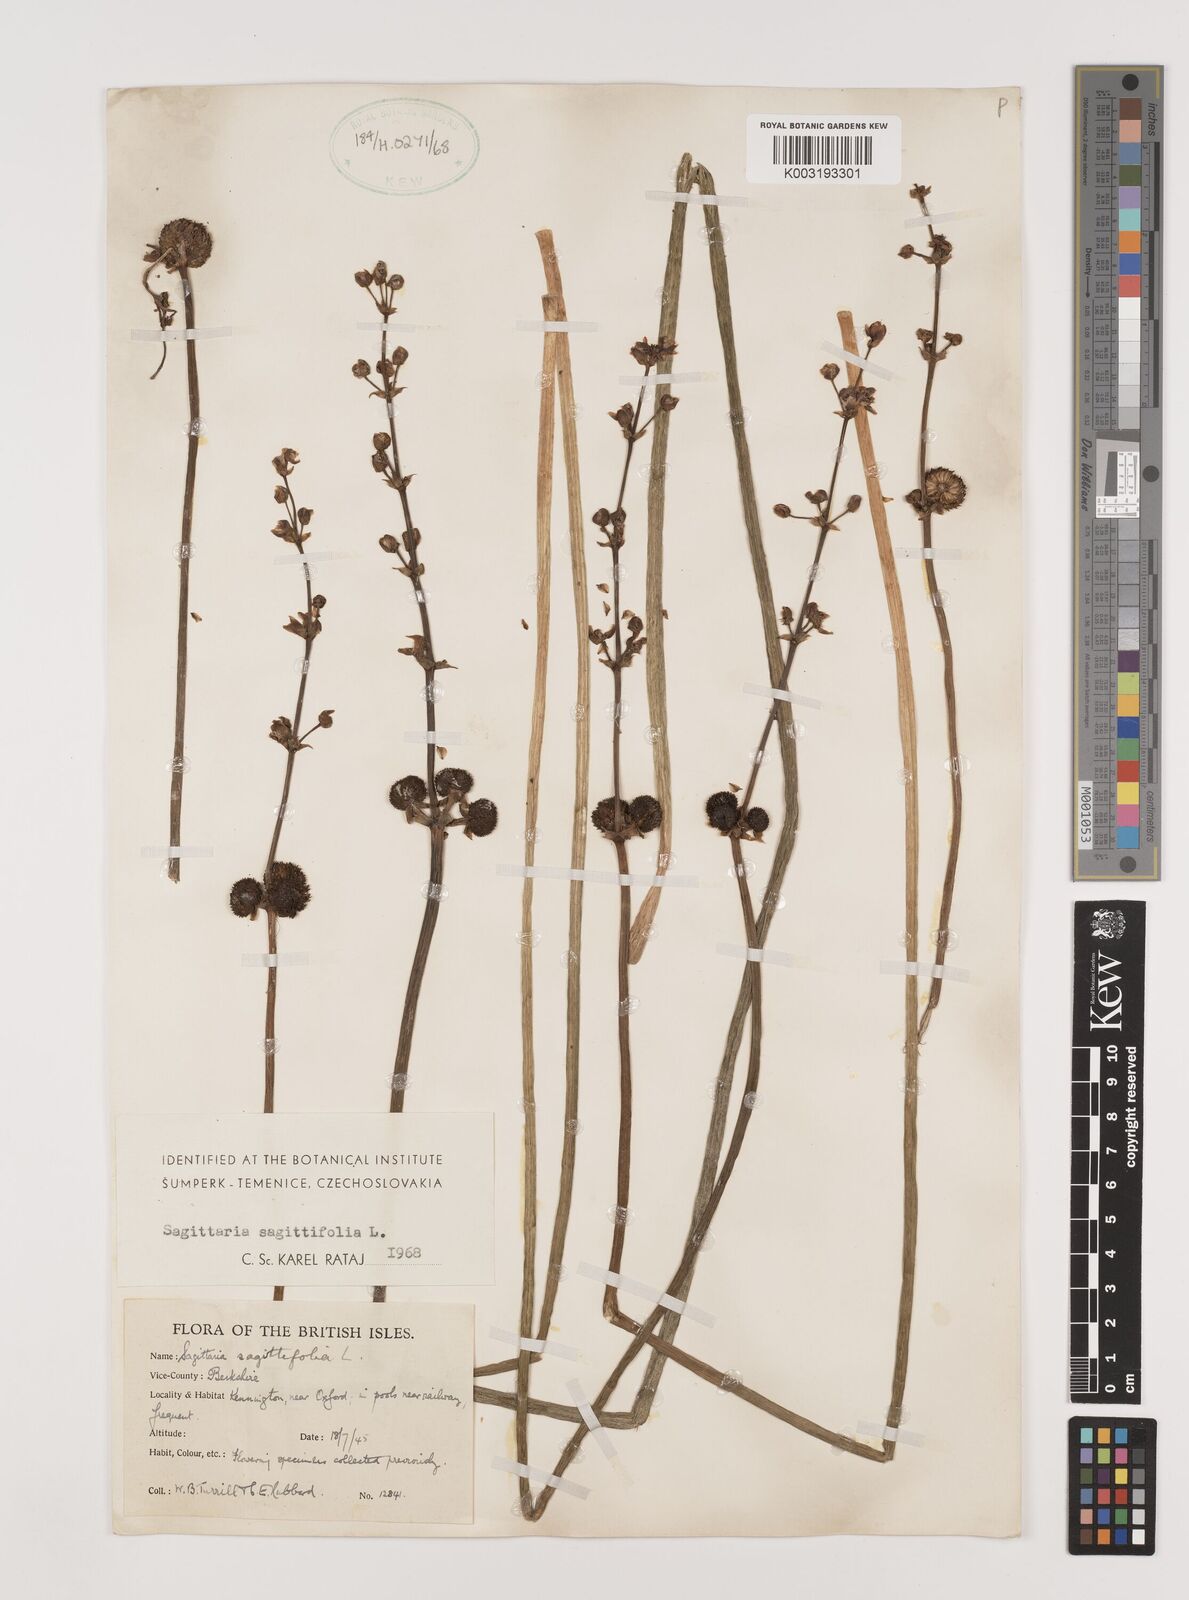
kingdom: Plantae
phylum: Tracheophyta
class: Liliopsida
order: Alismatales
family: Alismataceae
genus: Sagittaria
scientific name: Sagittaria sagittifolia
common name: Arrowhead
